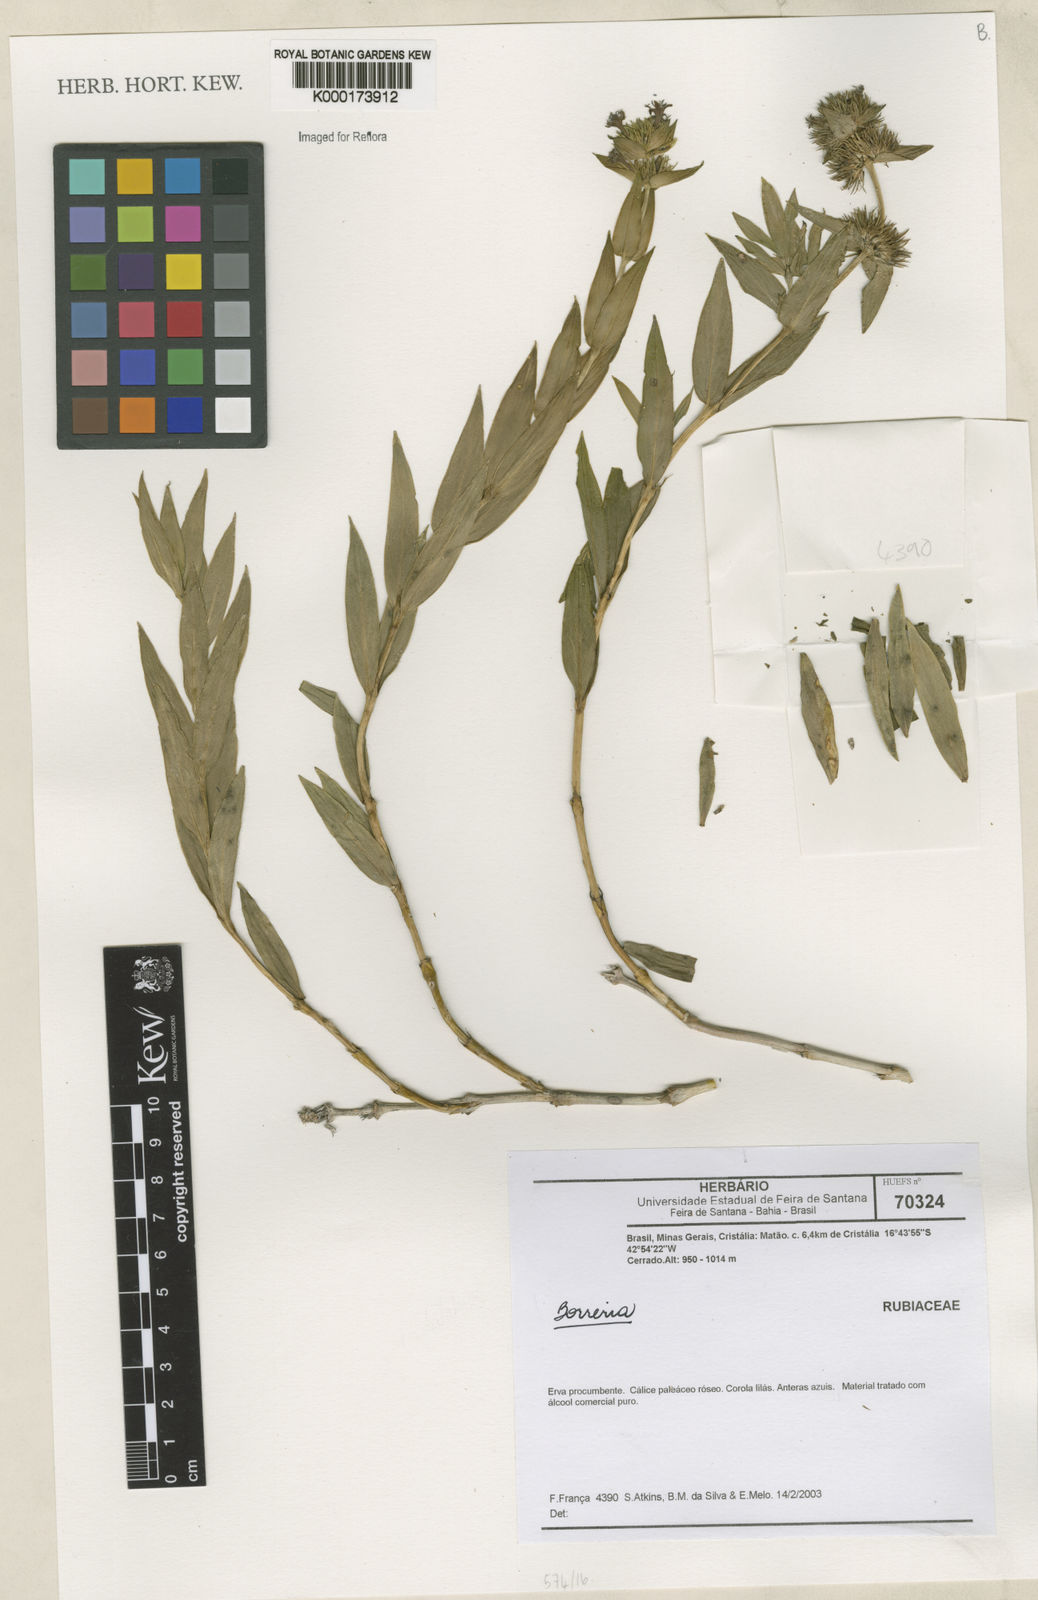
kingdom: Plantae
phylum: Tracheophyta
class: Magnoliopsida
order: Gentianales
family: Rubiaceae
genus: Spermacoce
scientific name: Spermacoce
